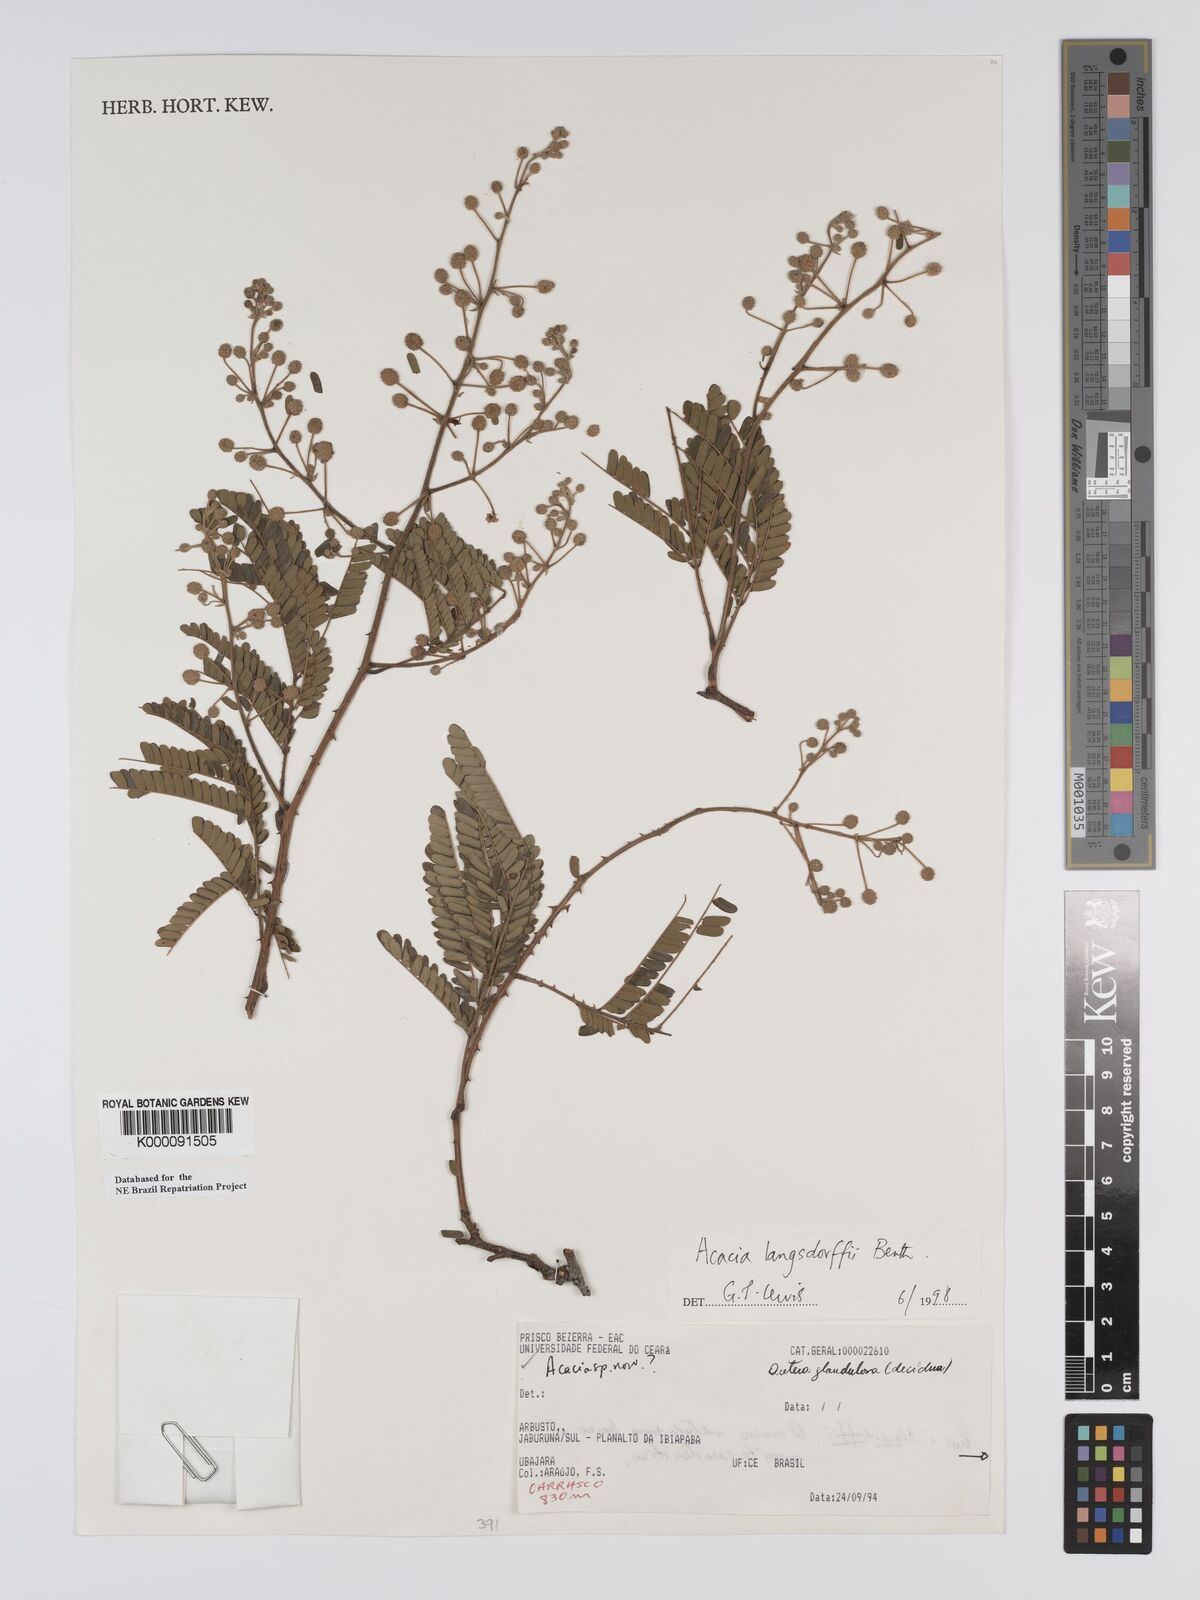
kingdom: Plantae
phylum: Tracheophyta
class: Magnoliopsida
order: Fabales
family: Fabaceae
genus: Senegalia
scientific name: Senegalia langsdorffii
